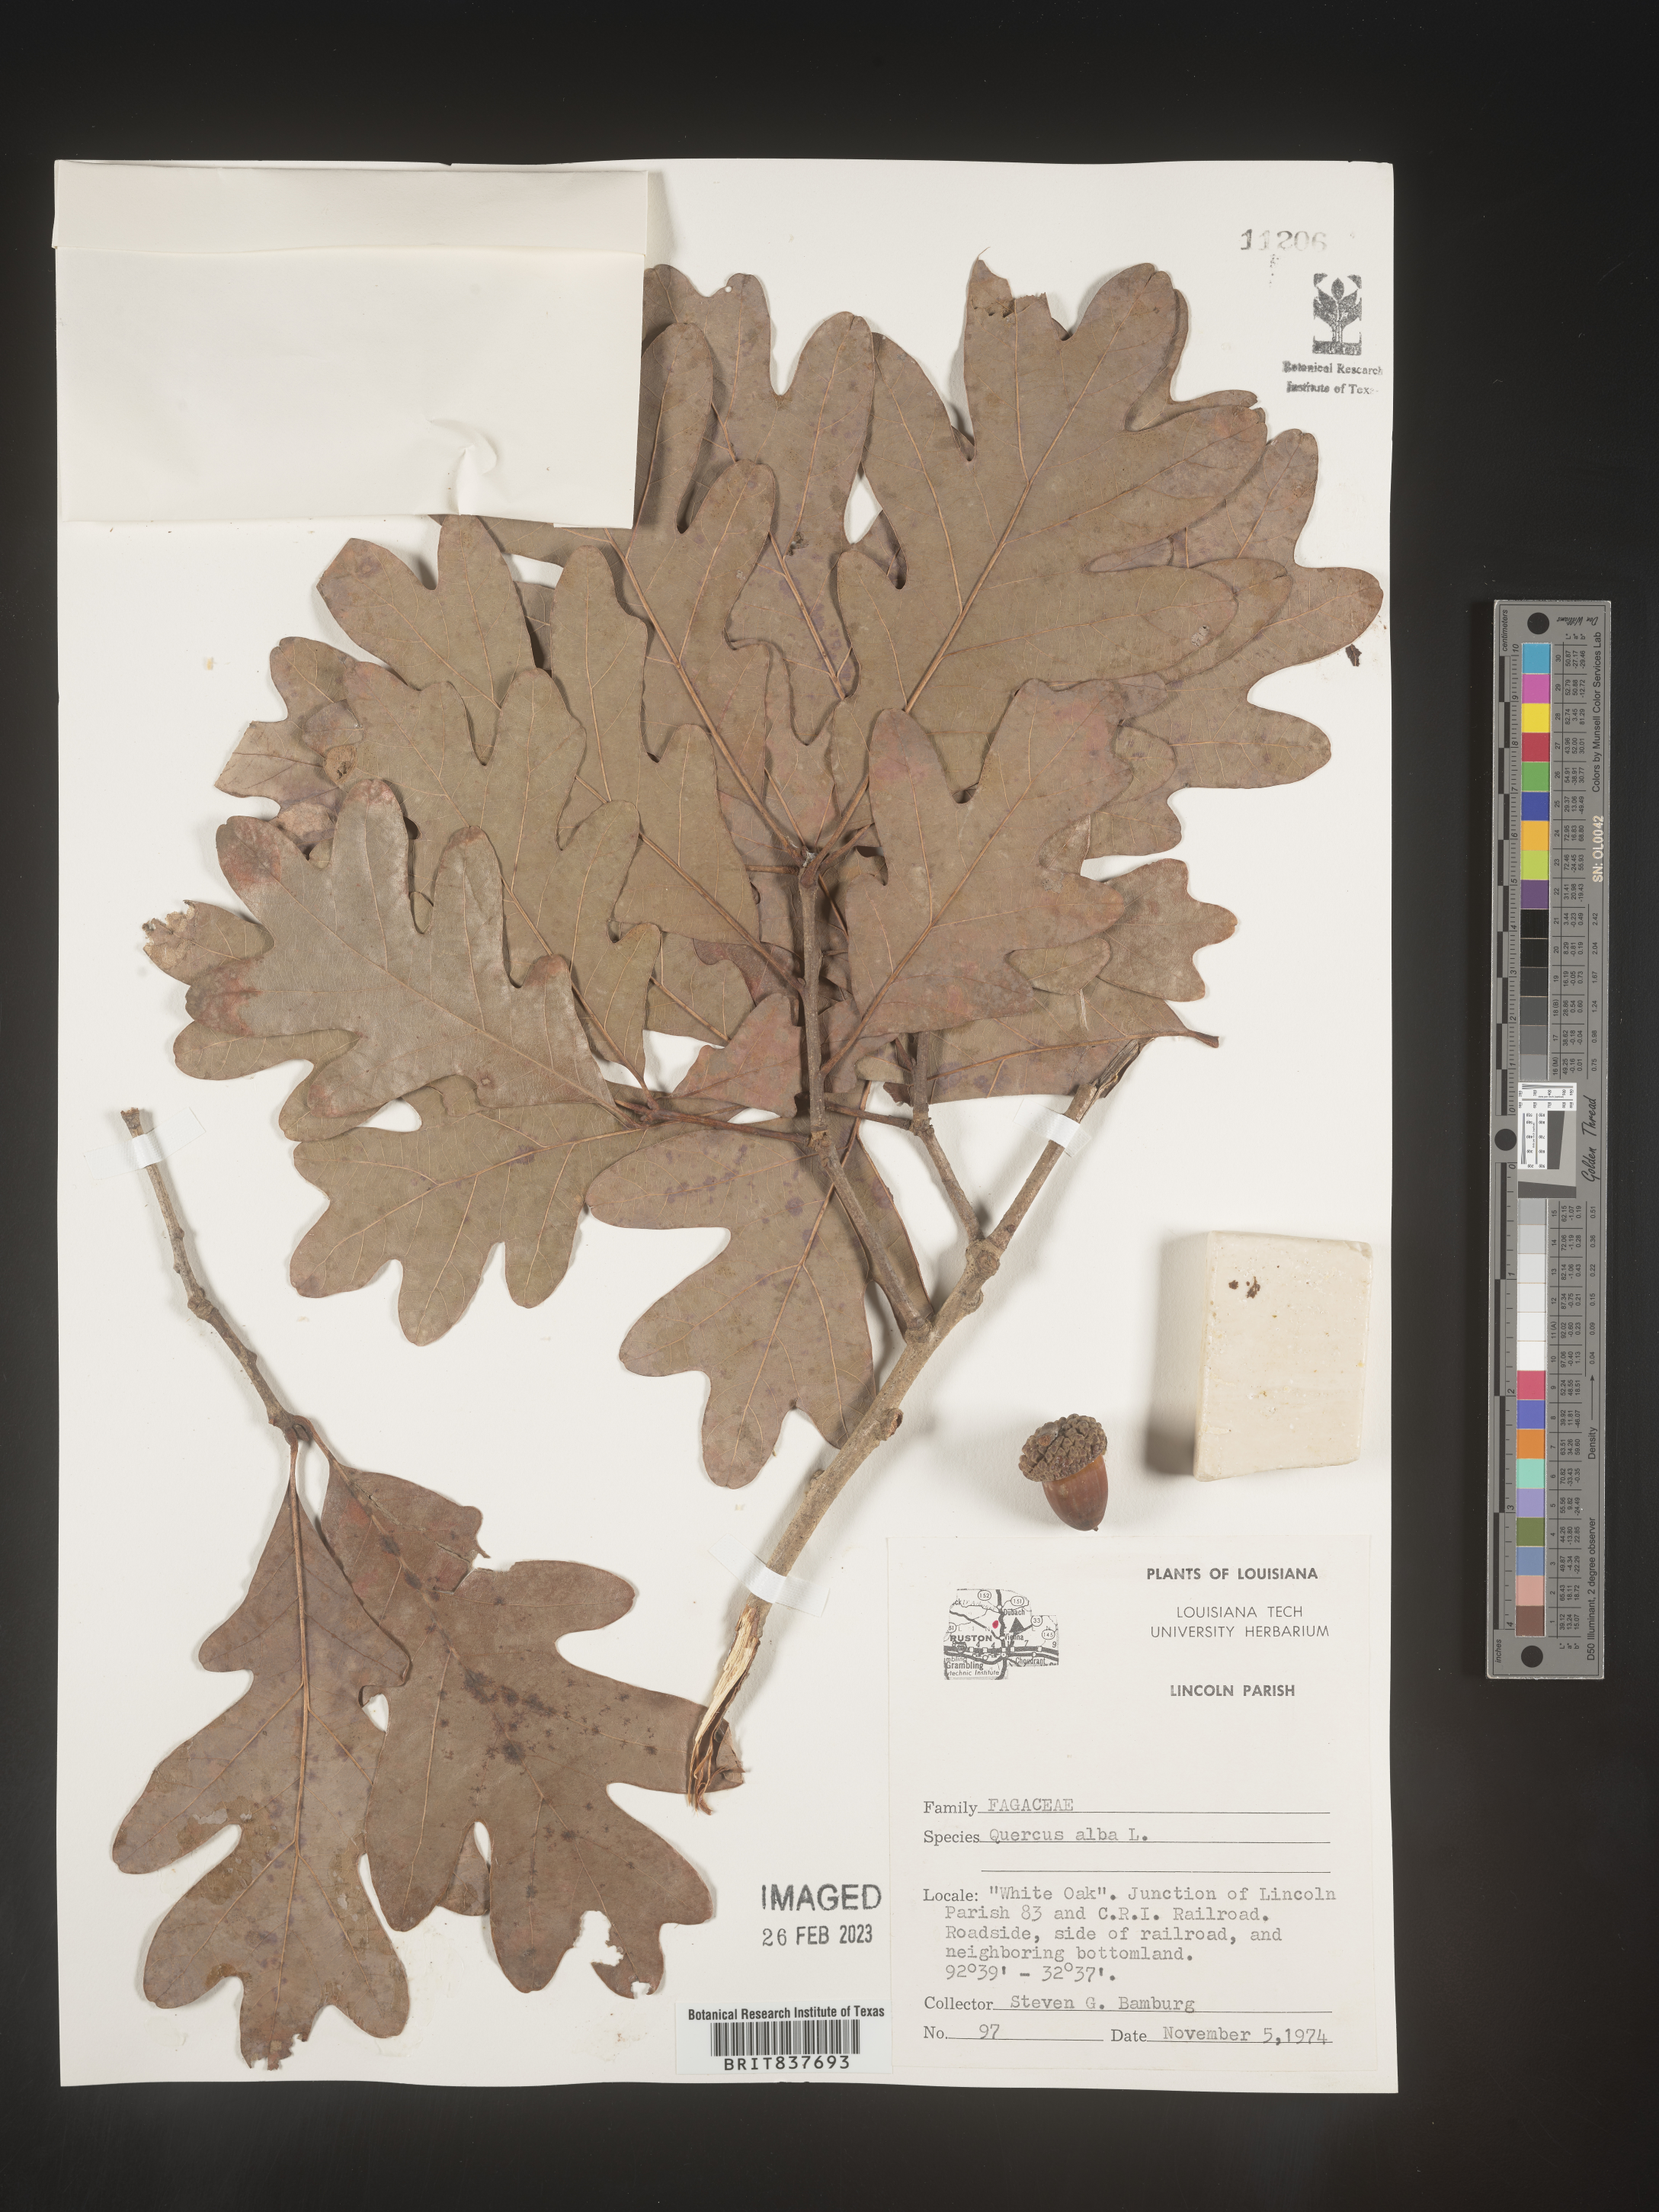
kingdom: Plantae
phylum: Tracheophyta
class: Magnoliopsida
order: Fagales
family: Fagaceae
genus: Quercus
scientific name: Quercus alba
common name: White oak
